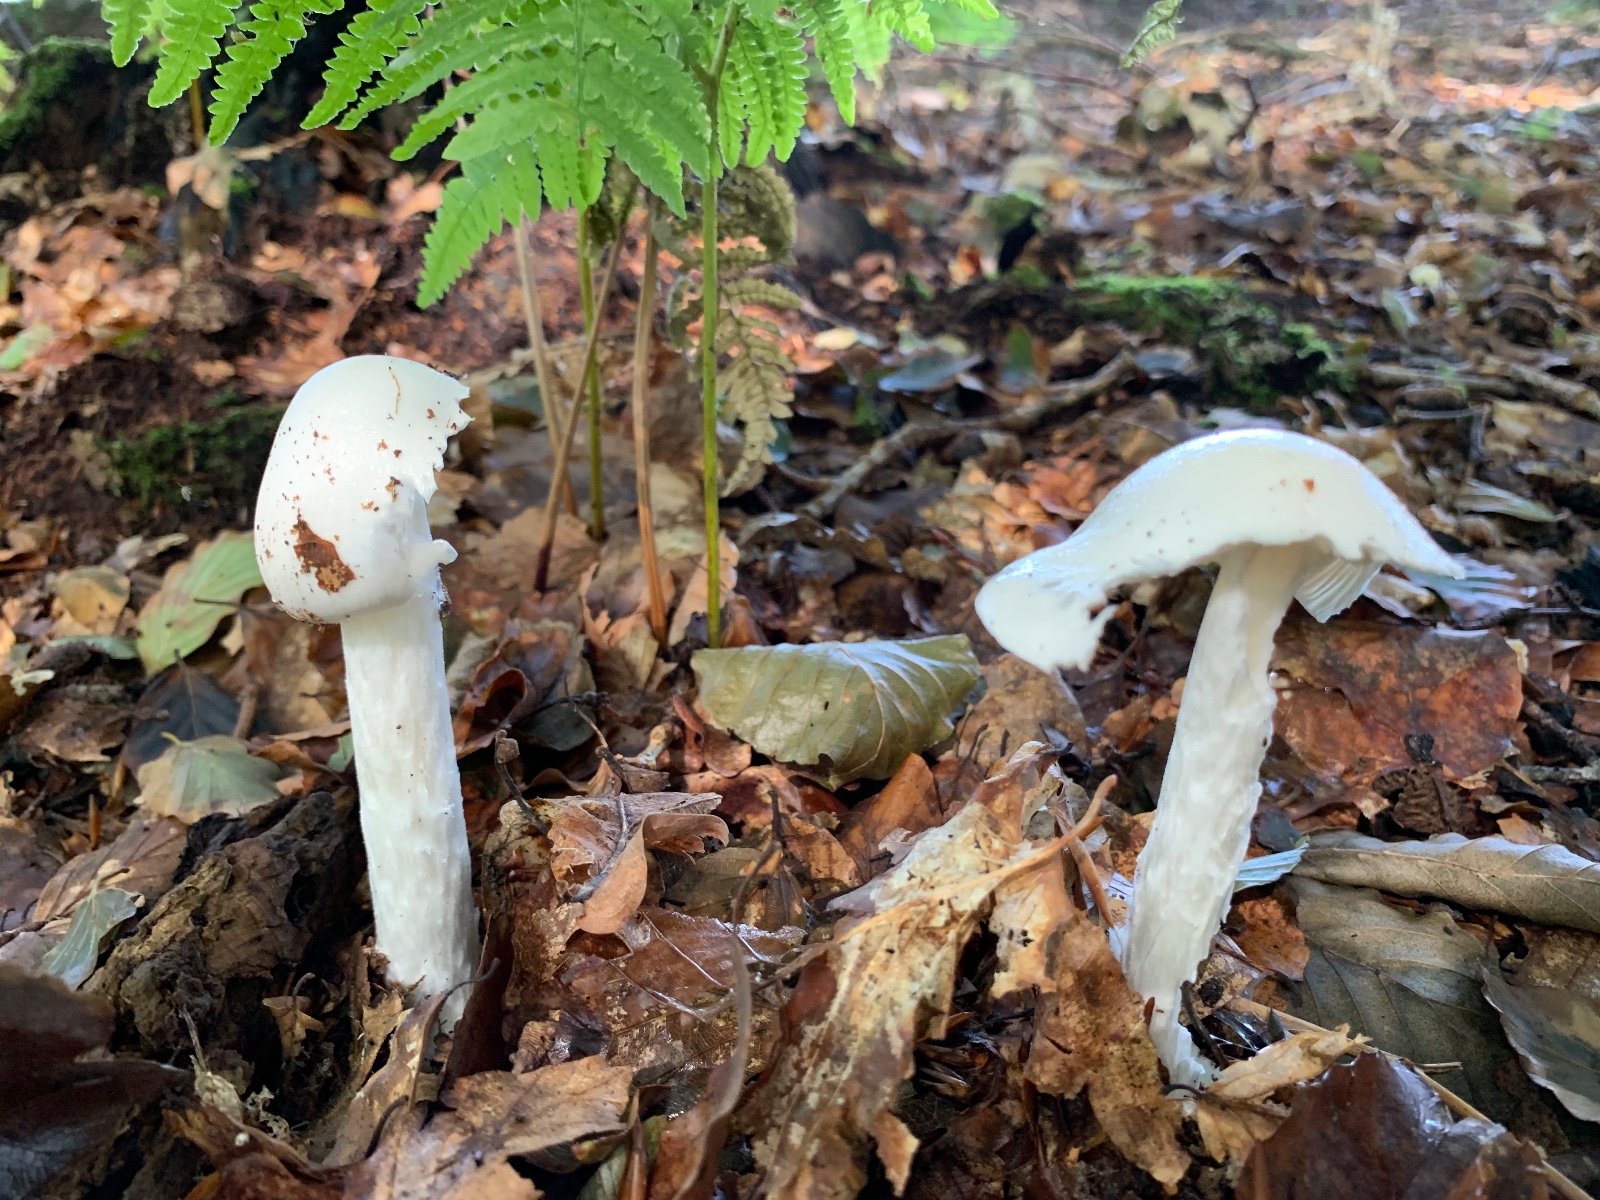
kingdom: Fungi
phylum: Basidiomycota
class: Agaricomycetes
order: Agaricales
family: Amanitaceae
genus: Amanita
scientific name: Amanita virosa
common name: snehvid fluesvamp
